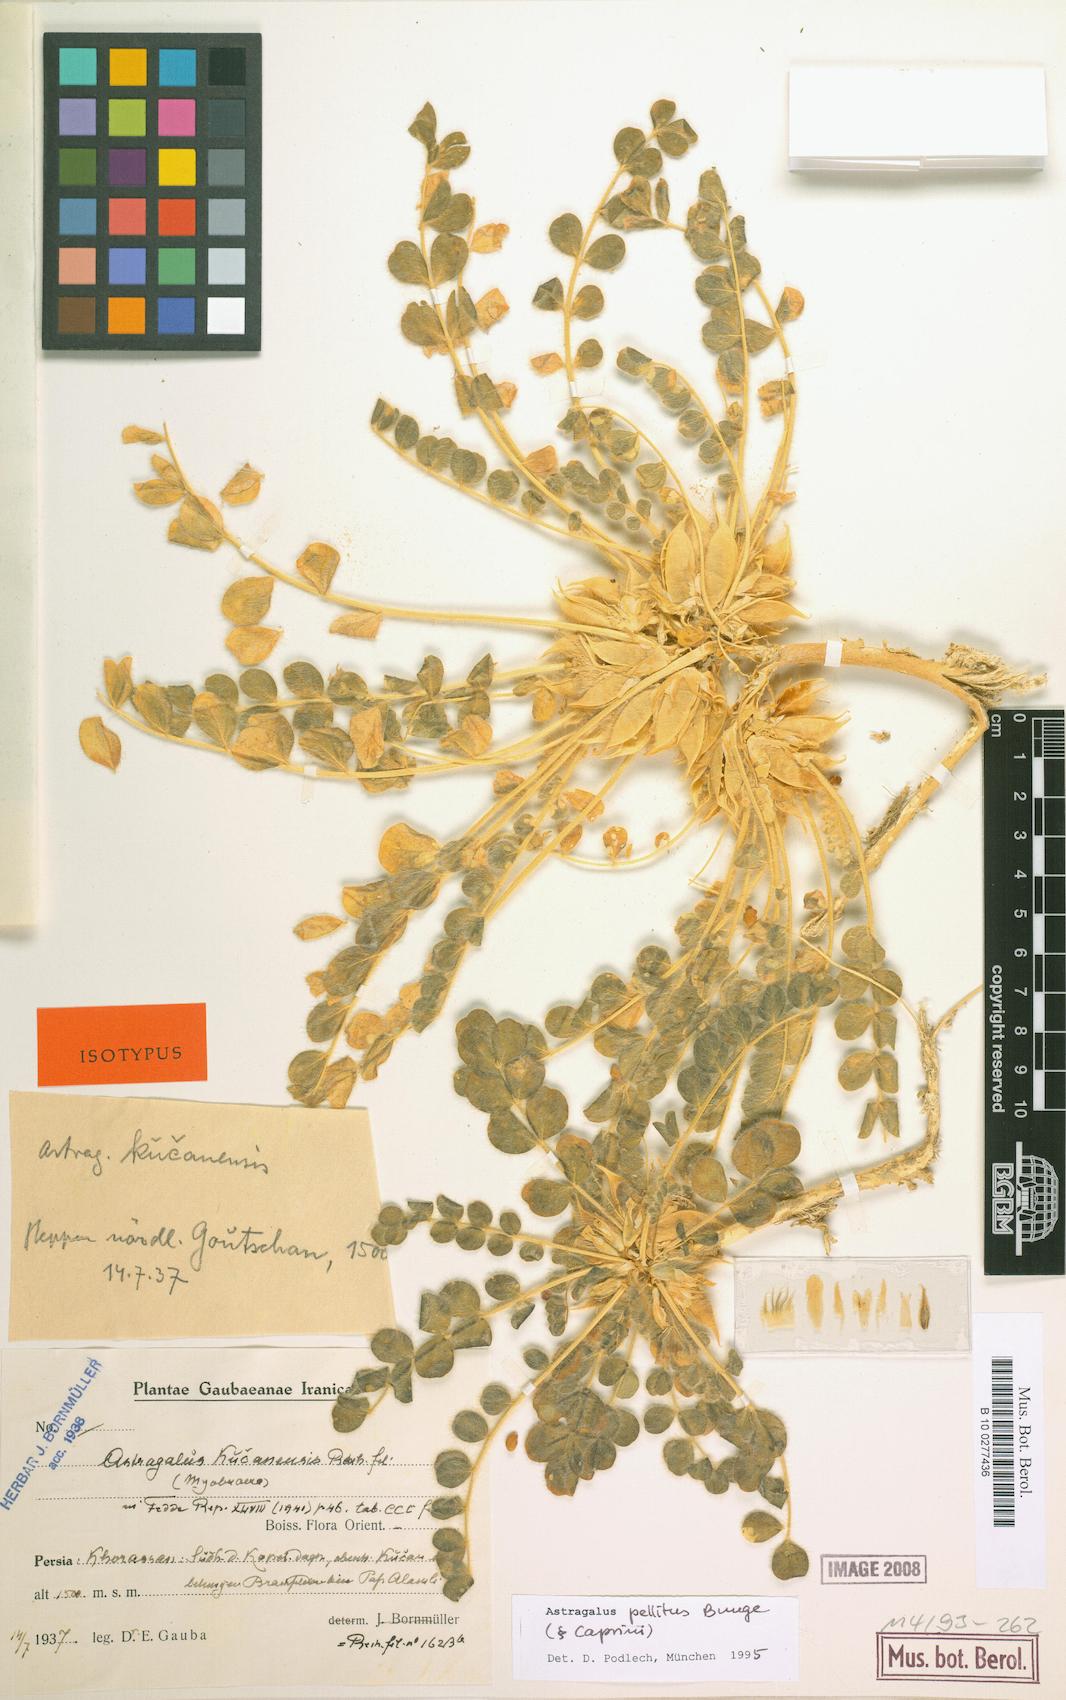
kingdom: Plantae
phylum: Tracheophyta
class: Magnoliopsida
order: Fabales
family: Fabaceae
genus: Astragalus
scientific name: Astragalus pellitus
